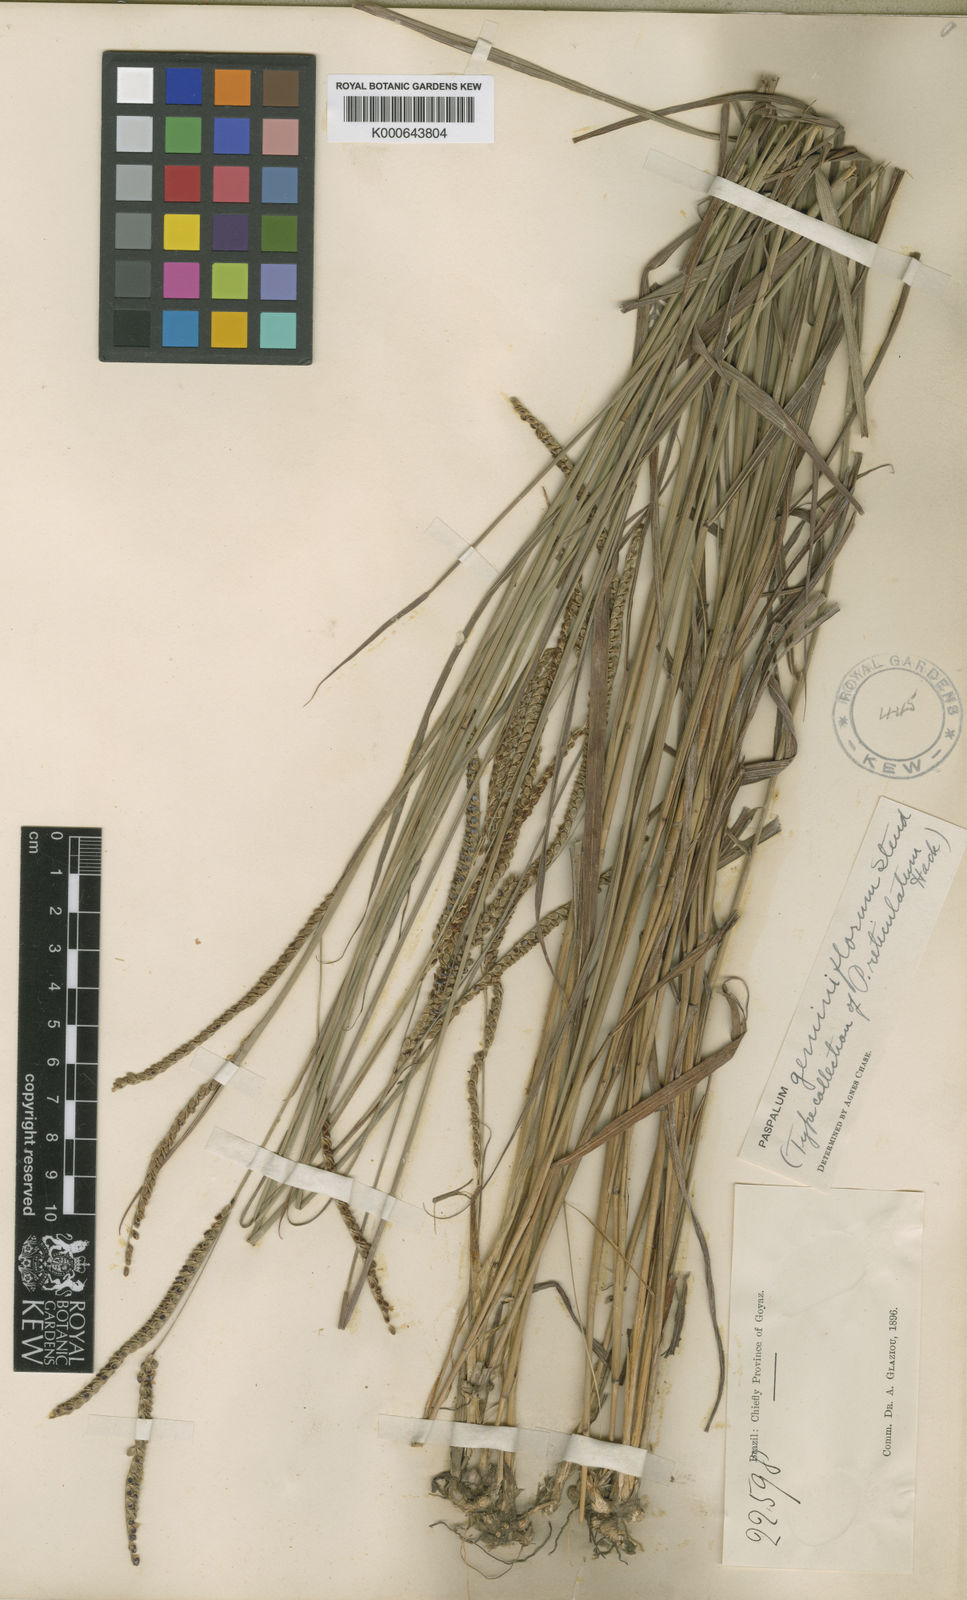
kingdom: Plantae
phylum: Tracheophyta
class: Liliopsida
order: Poales
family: Poaceae
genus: Paspalum
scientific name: Paspalum geminiflorum
